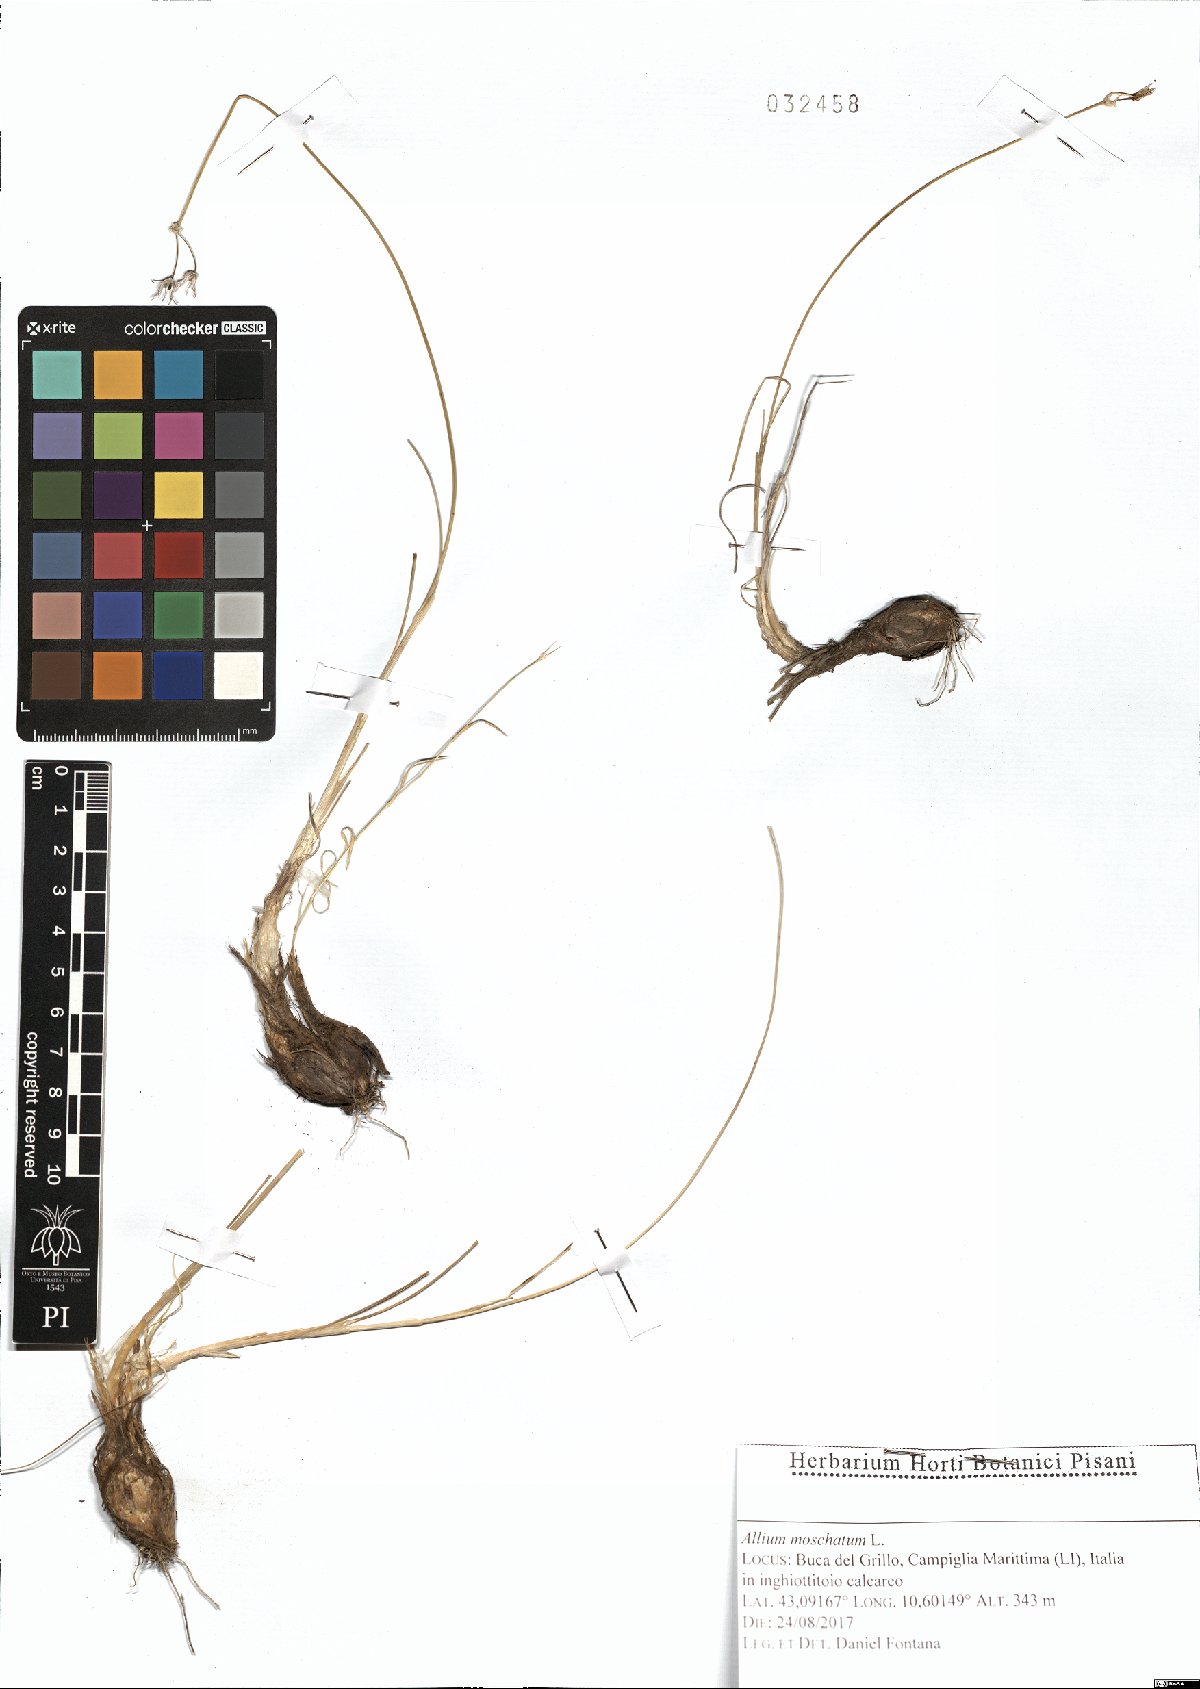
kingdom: Plantae
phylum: Tracheophyta
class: Liliopsida
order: Asparagales
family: Amaryllidaceae
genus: Allium
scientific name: Allium moschatum
